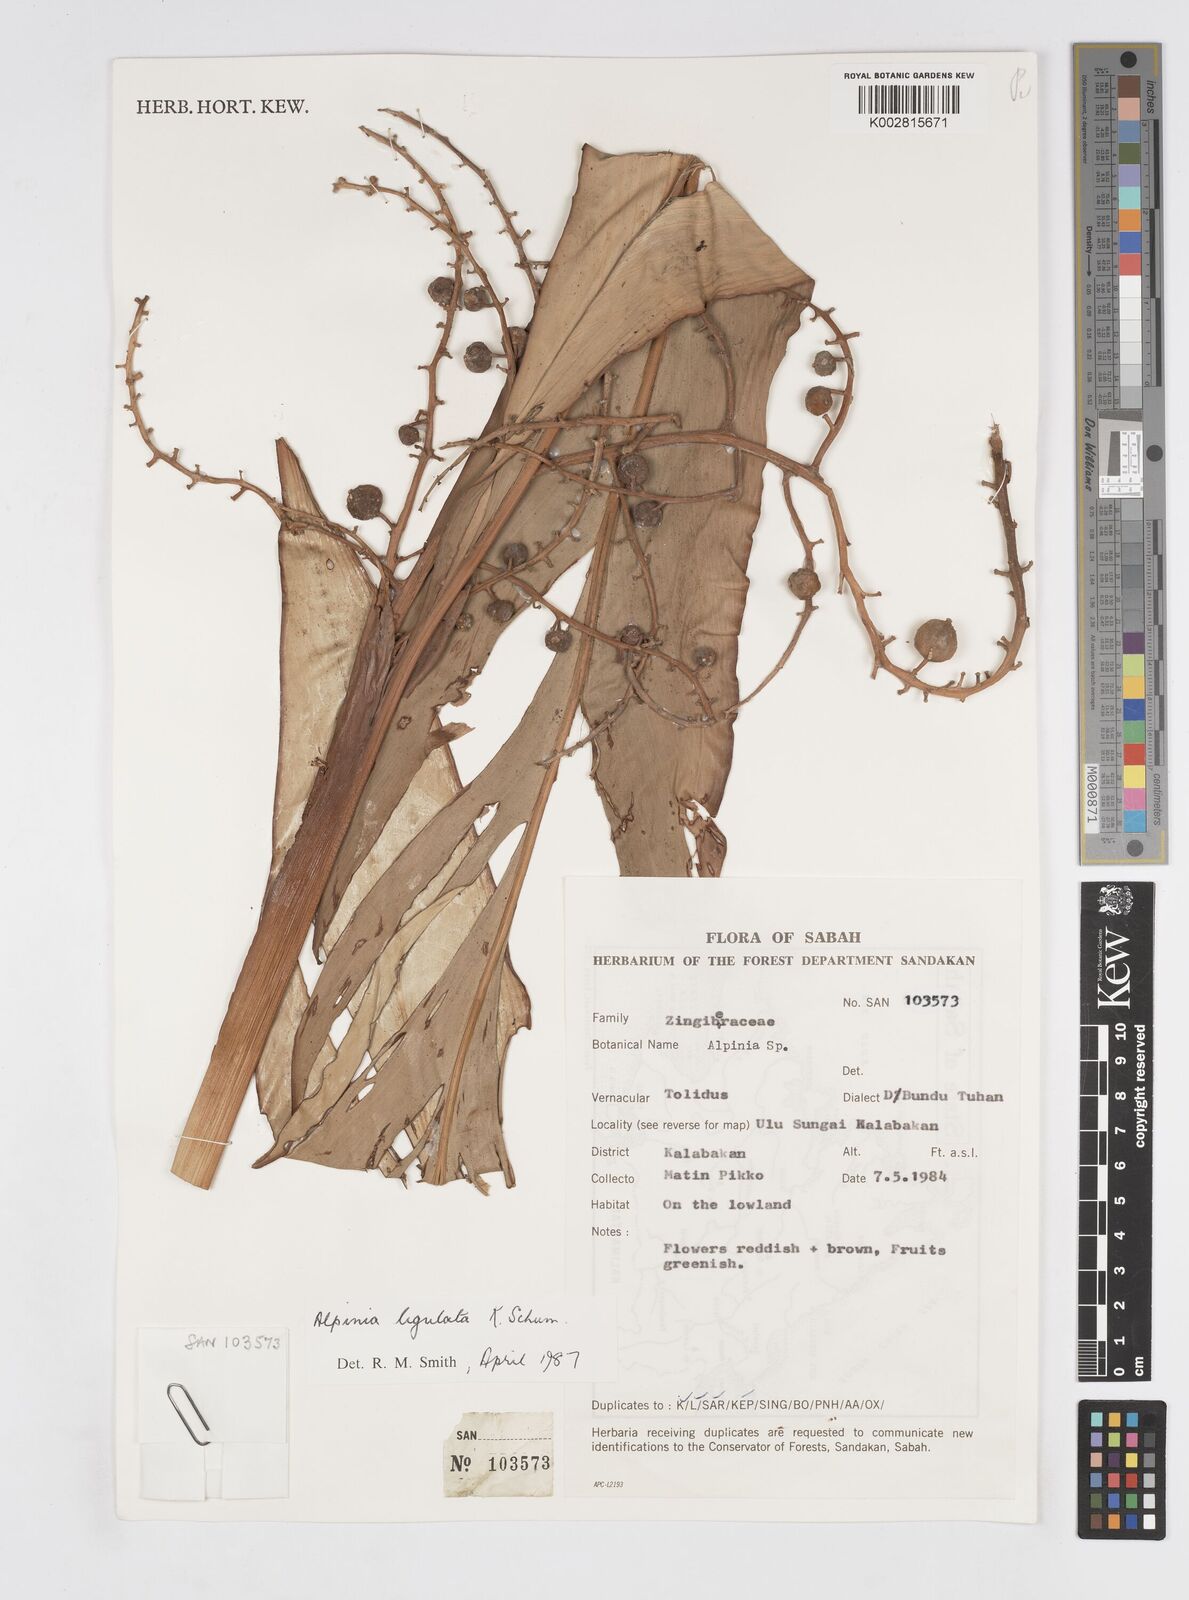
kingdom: Plantae
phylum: Tracheophyta
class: Liliopsida
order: Zingiberales
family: Zingiberaceae
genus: Alpinia
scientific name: Alpinia ligulata
